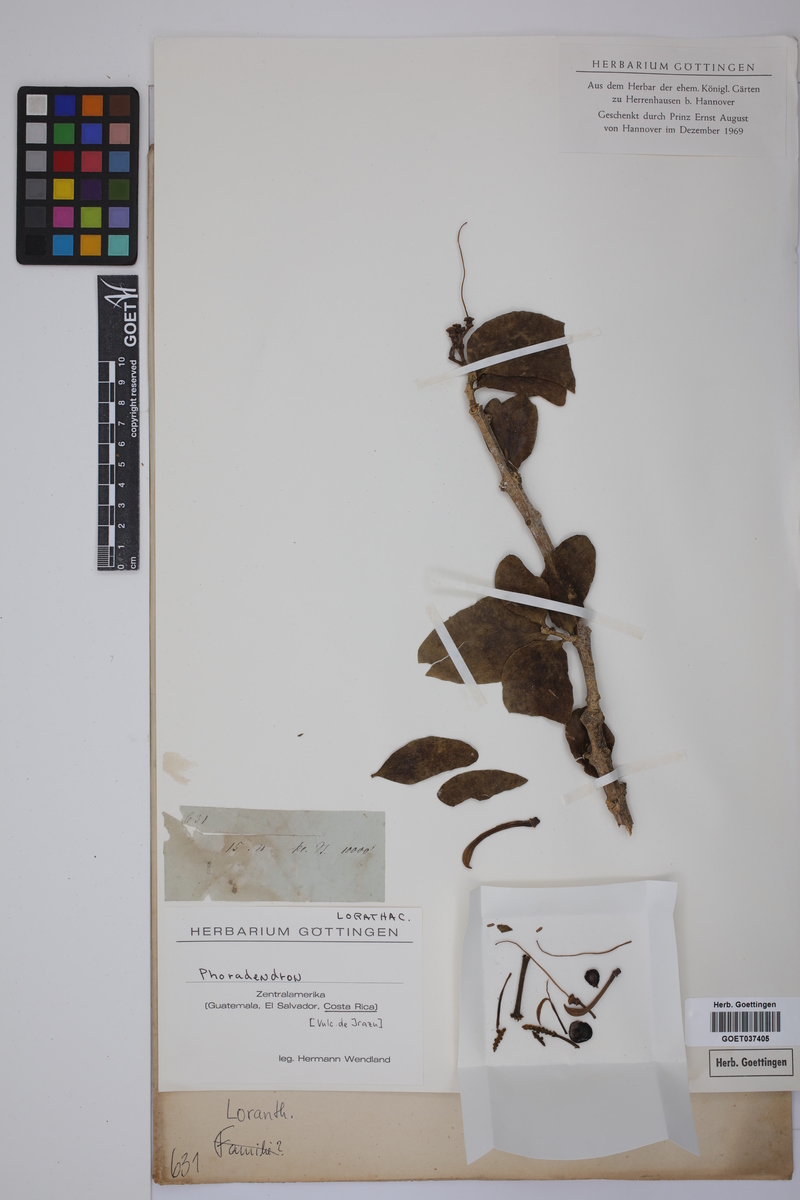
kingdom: Plantae
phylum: Tracheophyta
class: Magnoliopsida
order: Santalales
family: Viscaceae
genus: Phoradendron
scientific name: Phoradendron
